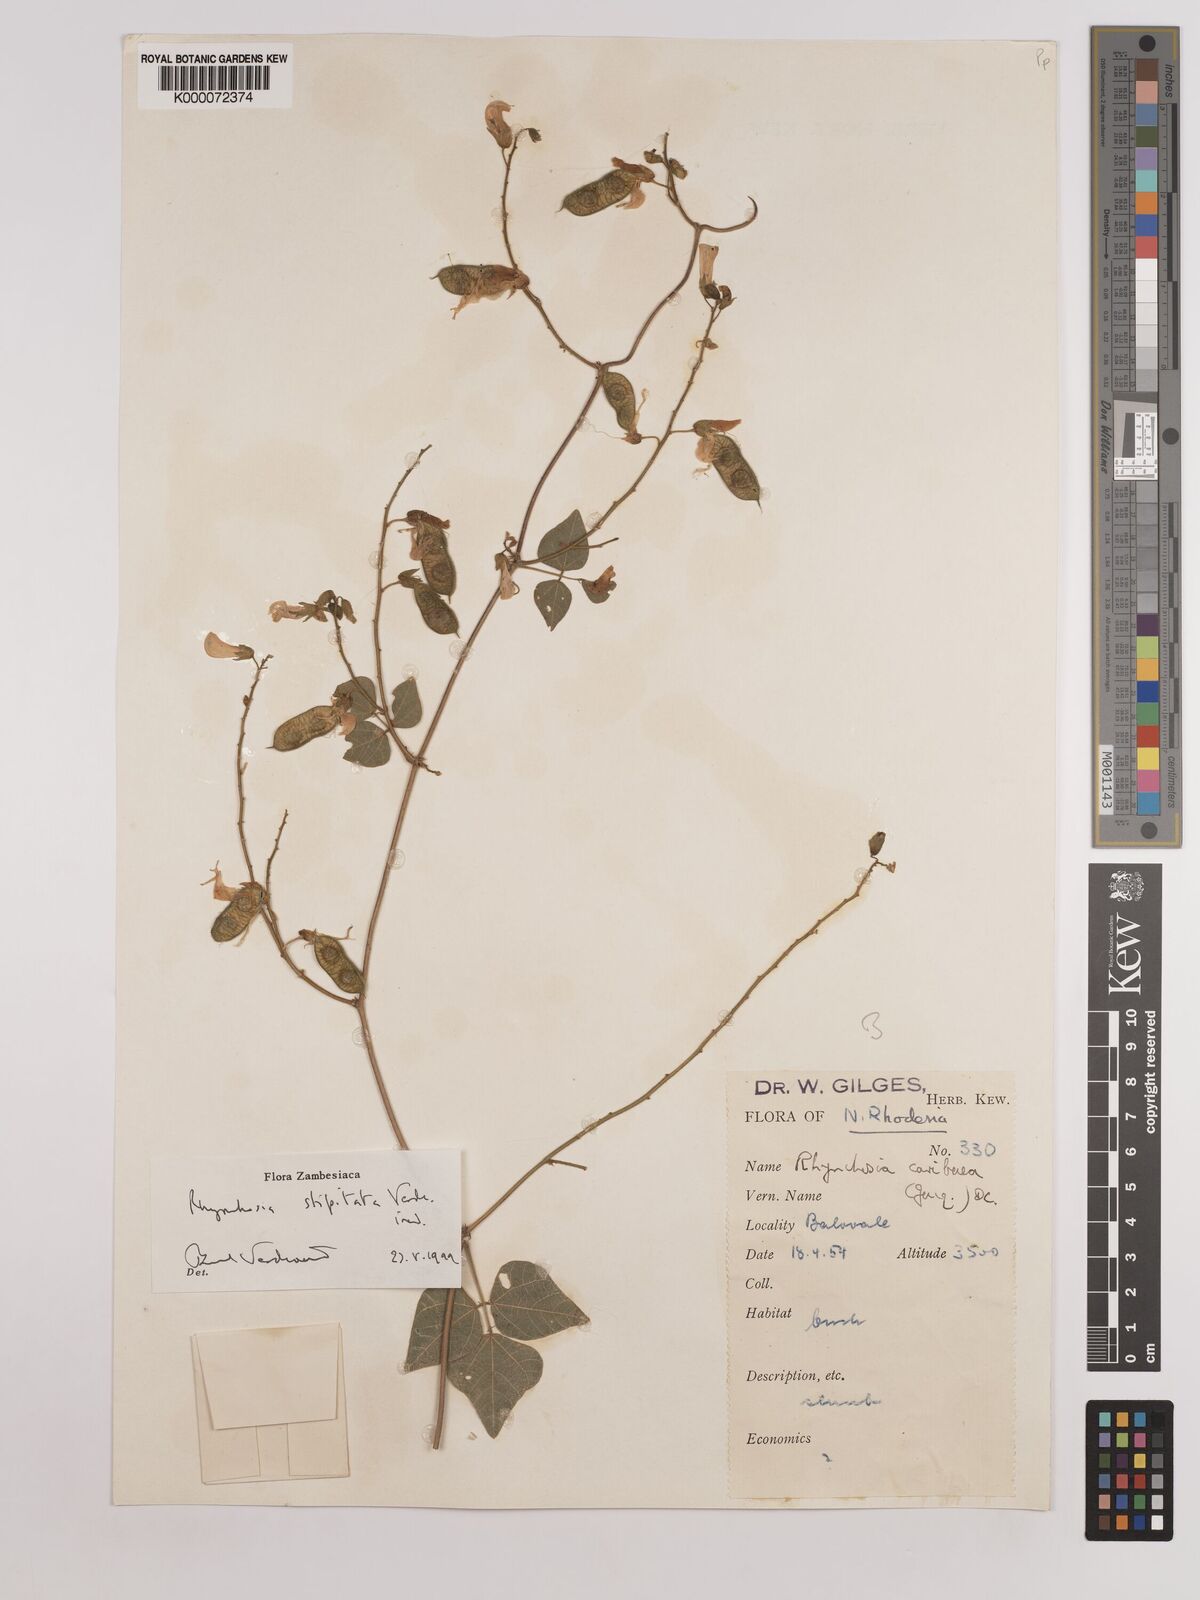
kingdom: Plantae
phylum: Tracheophyta
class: Magnoliopsida
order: Fabales
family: Fabaceae
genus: Rhynchosia
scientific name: Rhynchosia stipitata
